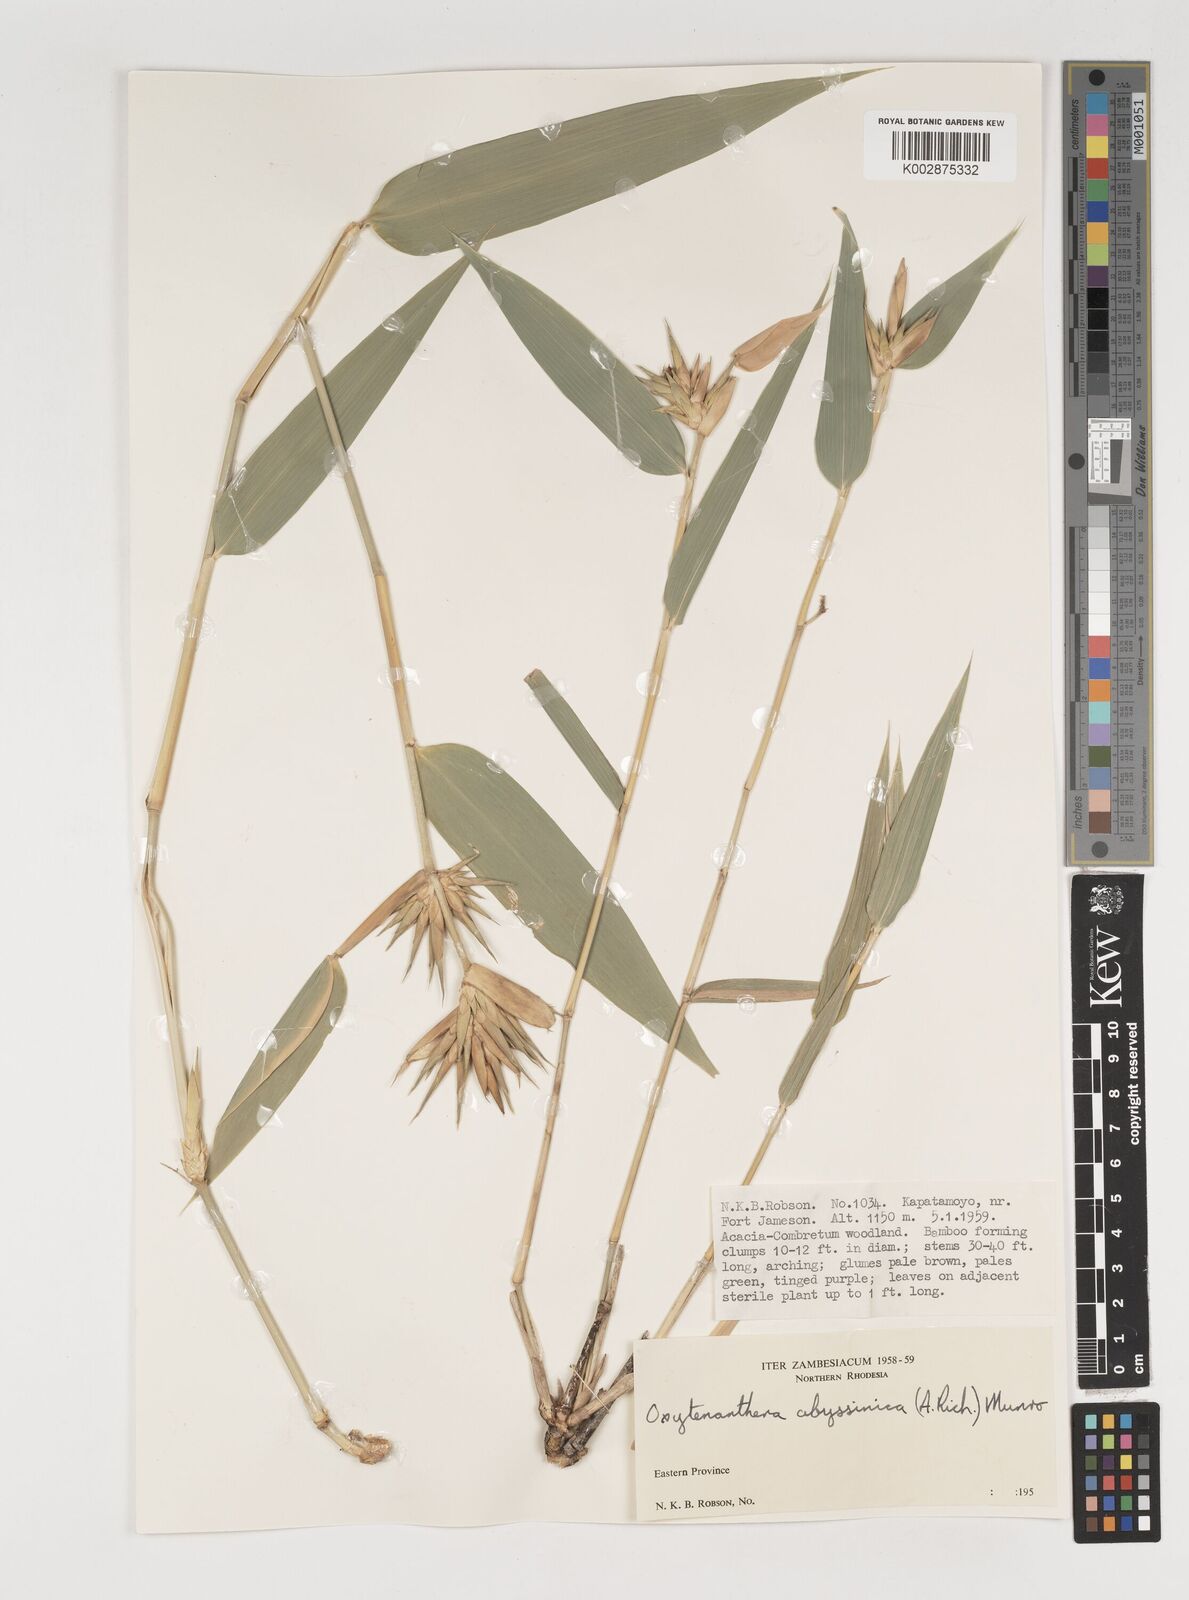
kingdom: Plantae
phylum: Tracheophyta
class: Liliopsida
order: Poales
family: Poaceae
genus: Oxytenanthera
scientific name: Oxytenanthera abyssinica
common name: Wine bamboo
